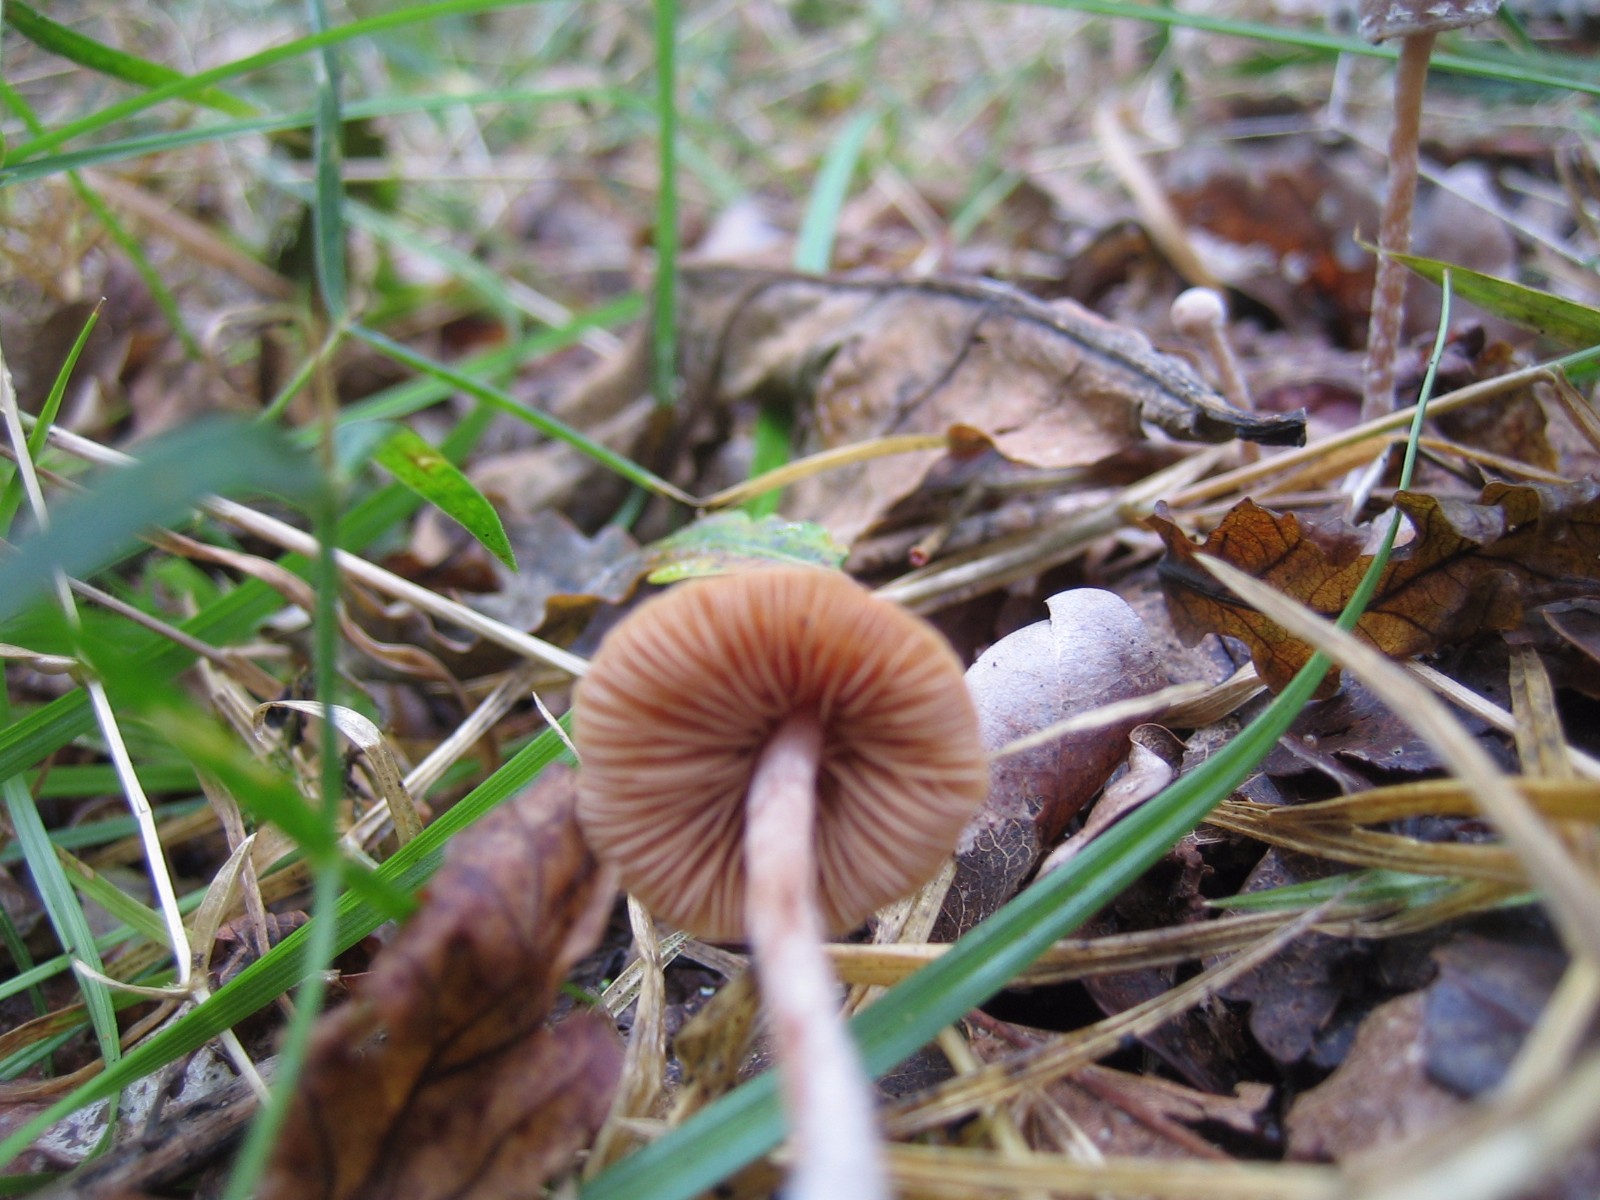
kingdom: Fungi
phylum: Basidiomycota
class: Agaricomycetes
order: Agaricales
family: Tubariaceae
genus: Tubaria
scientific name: Tubaria conspersa
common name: bleg fnughat
